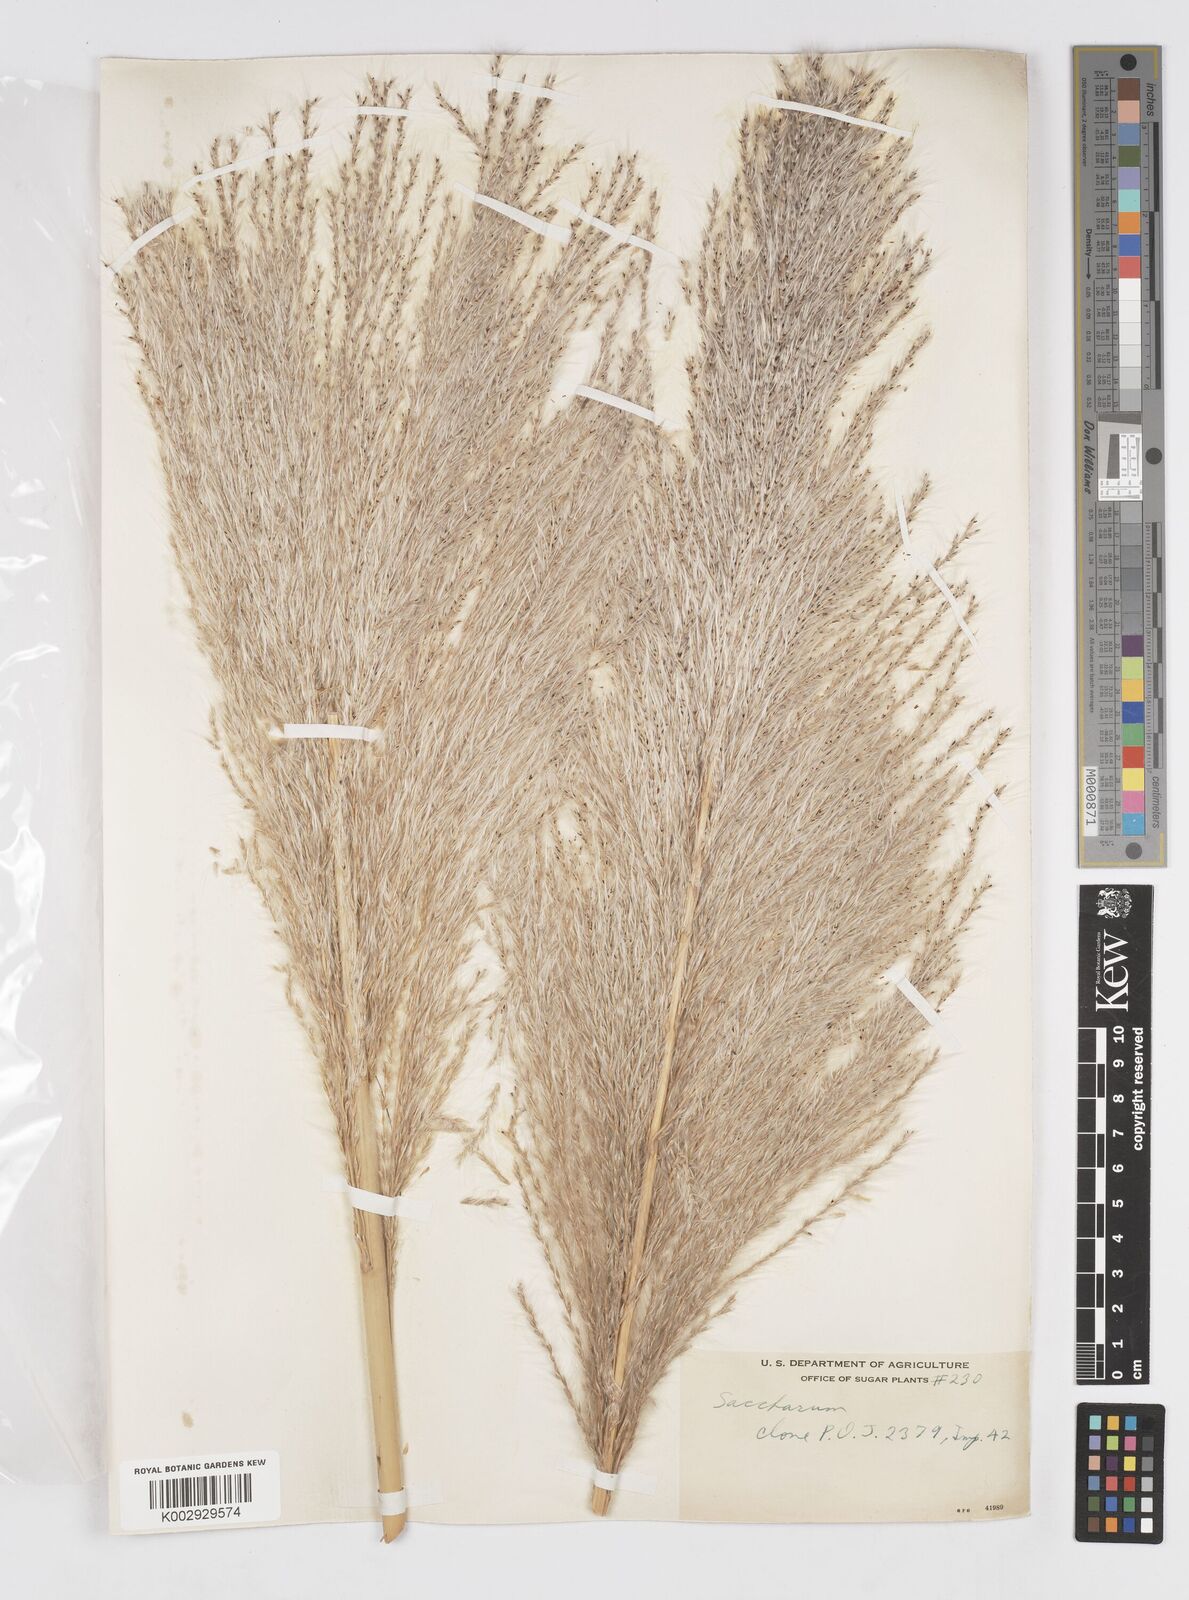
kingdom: Plantae
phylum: Tracheophyta
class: Liliopsida
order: Poales
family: Poaceae
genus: Saccharum
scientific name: Saccharum officinarum
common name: Sugarcane
